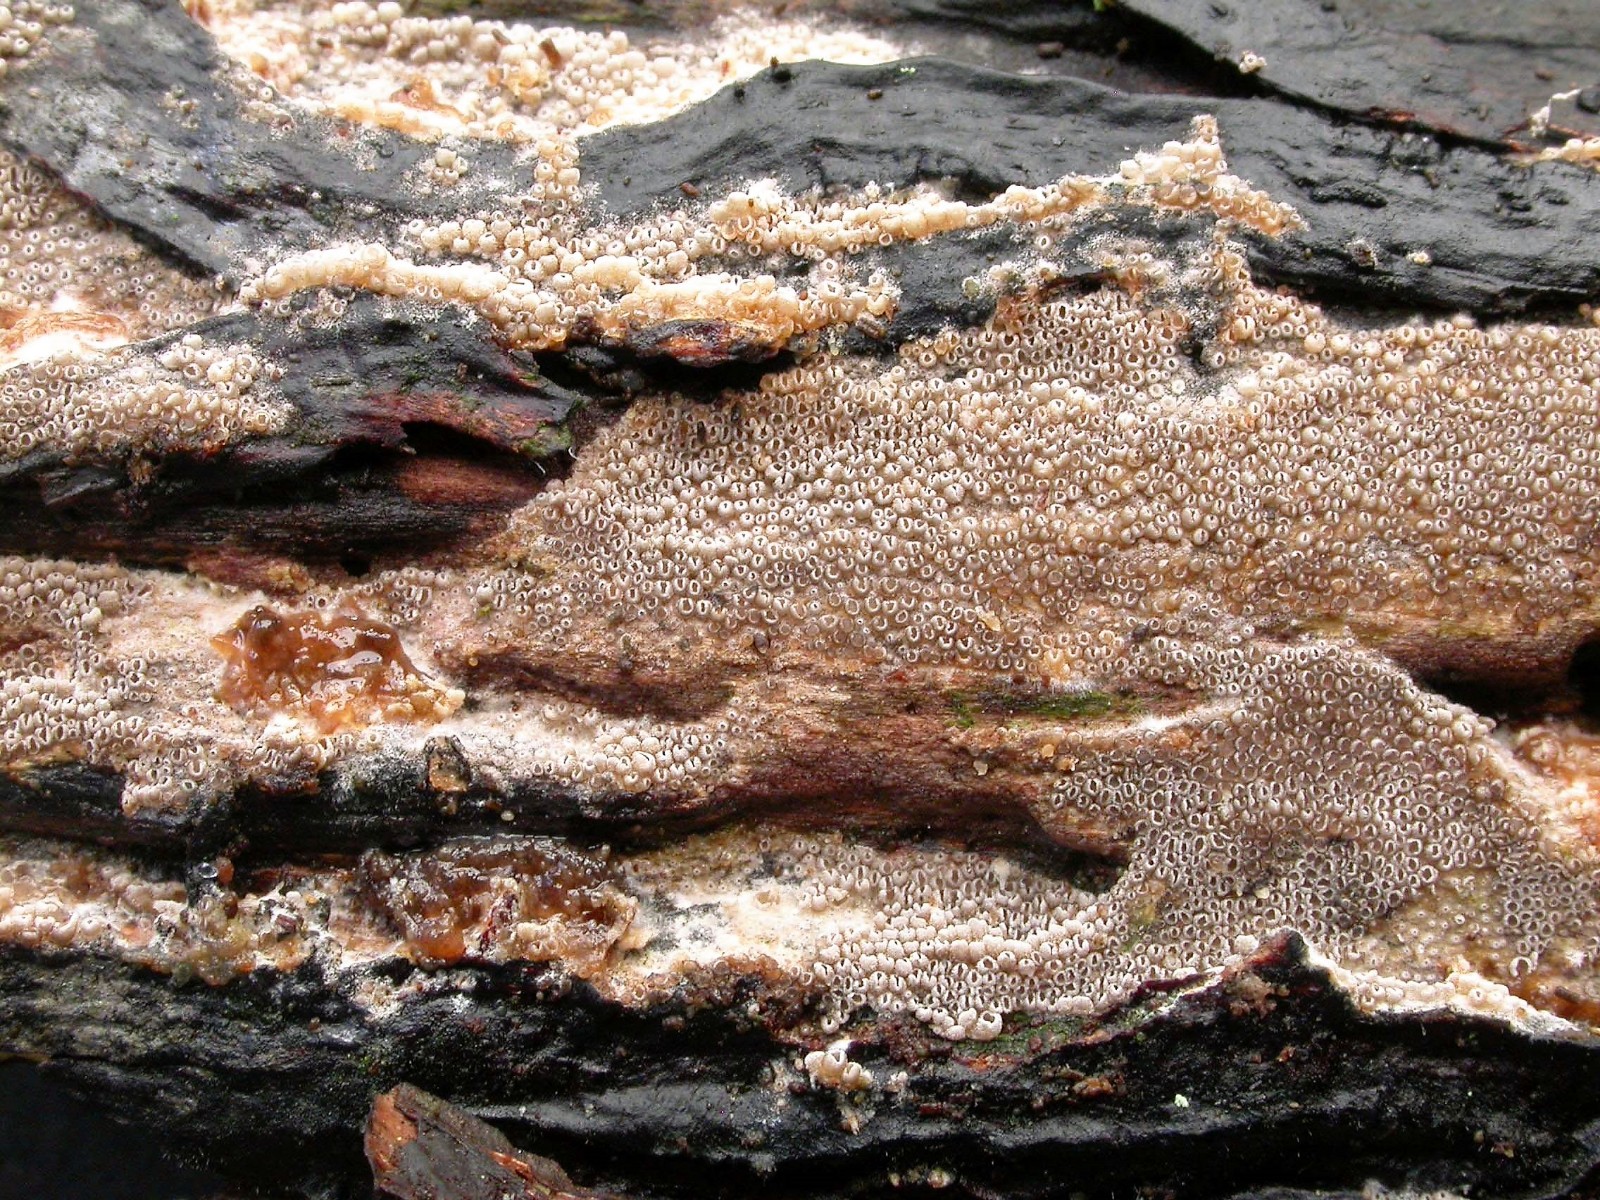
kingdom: Fungi
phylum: Basidiomycota
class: Agaricomycetes
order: Agaricales
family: Pleurotaceae
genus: Resupinatus
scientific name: Resupinatus poriaeformis
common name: tæpperør
